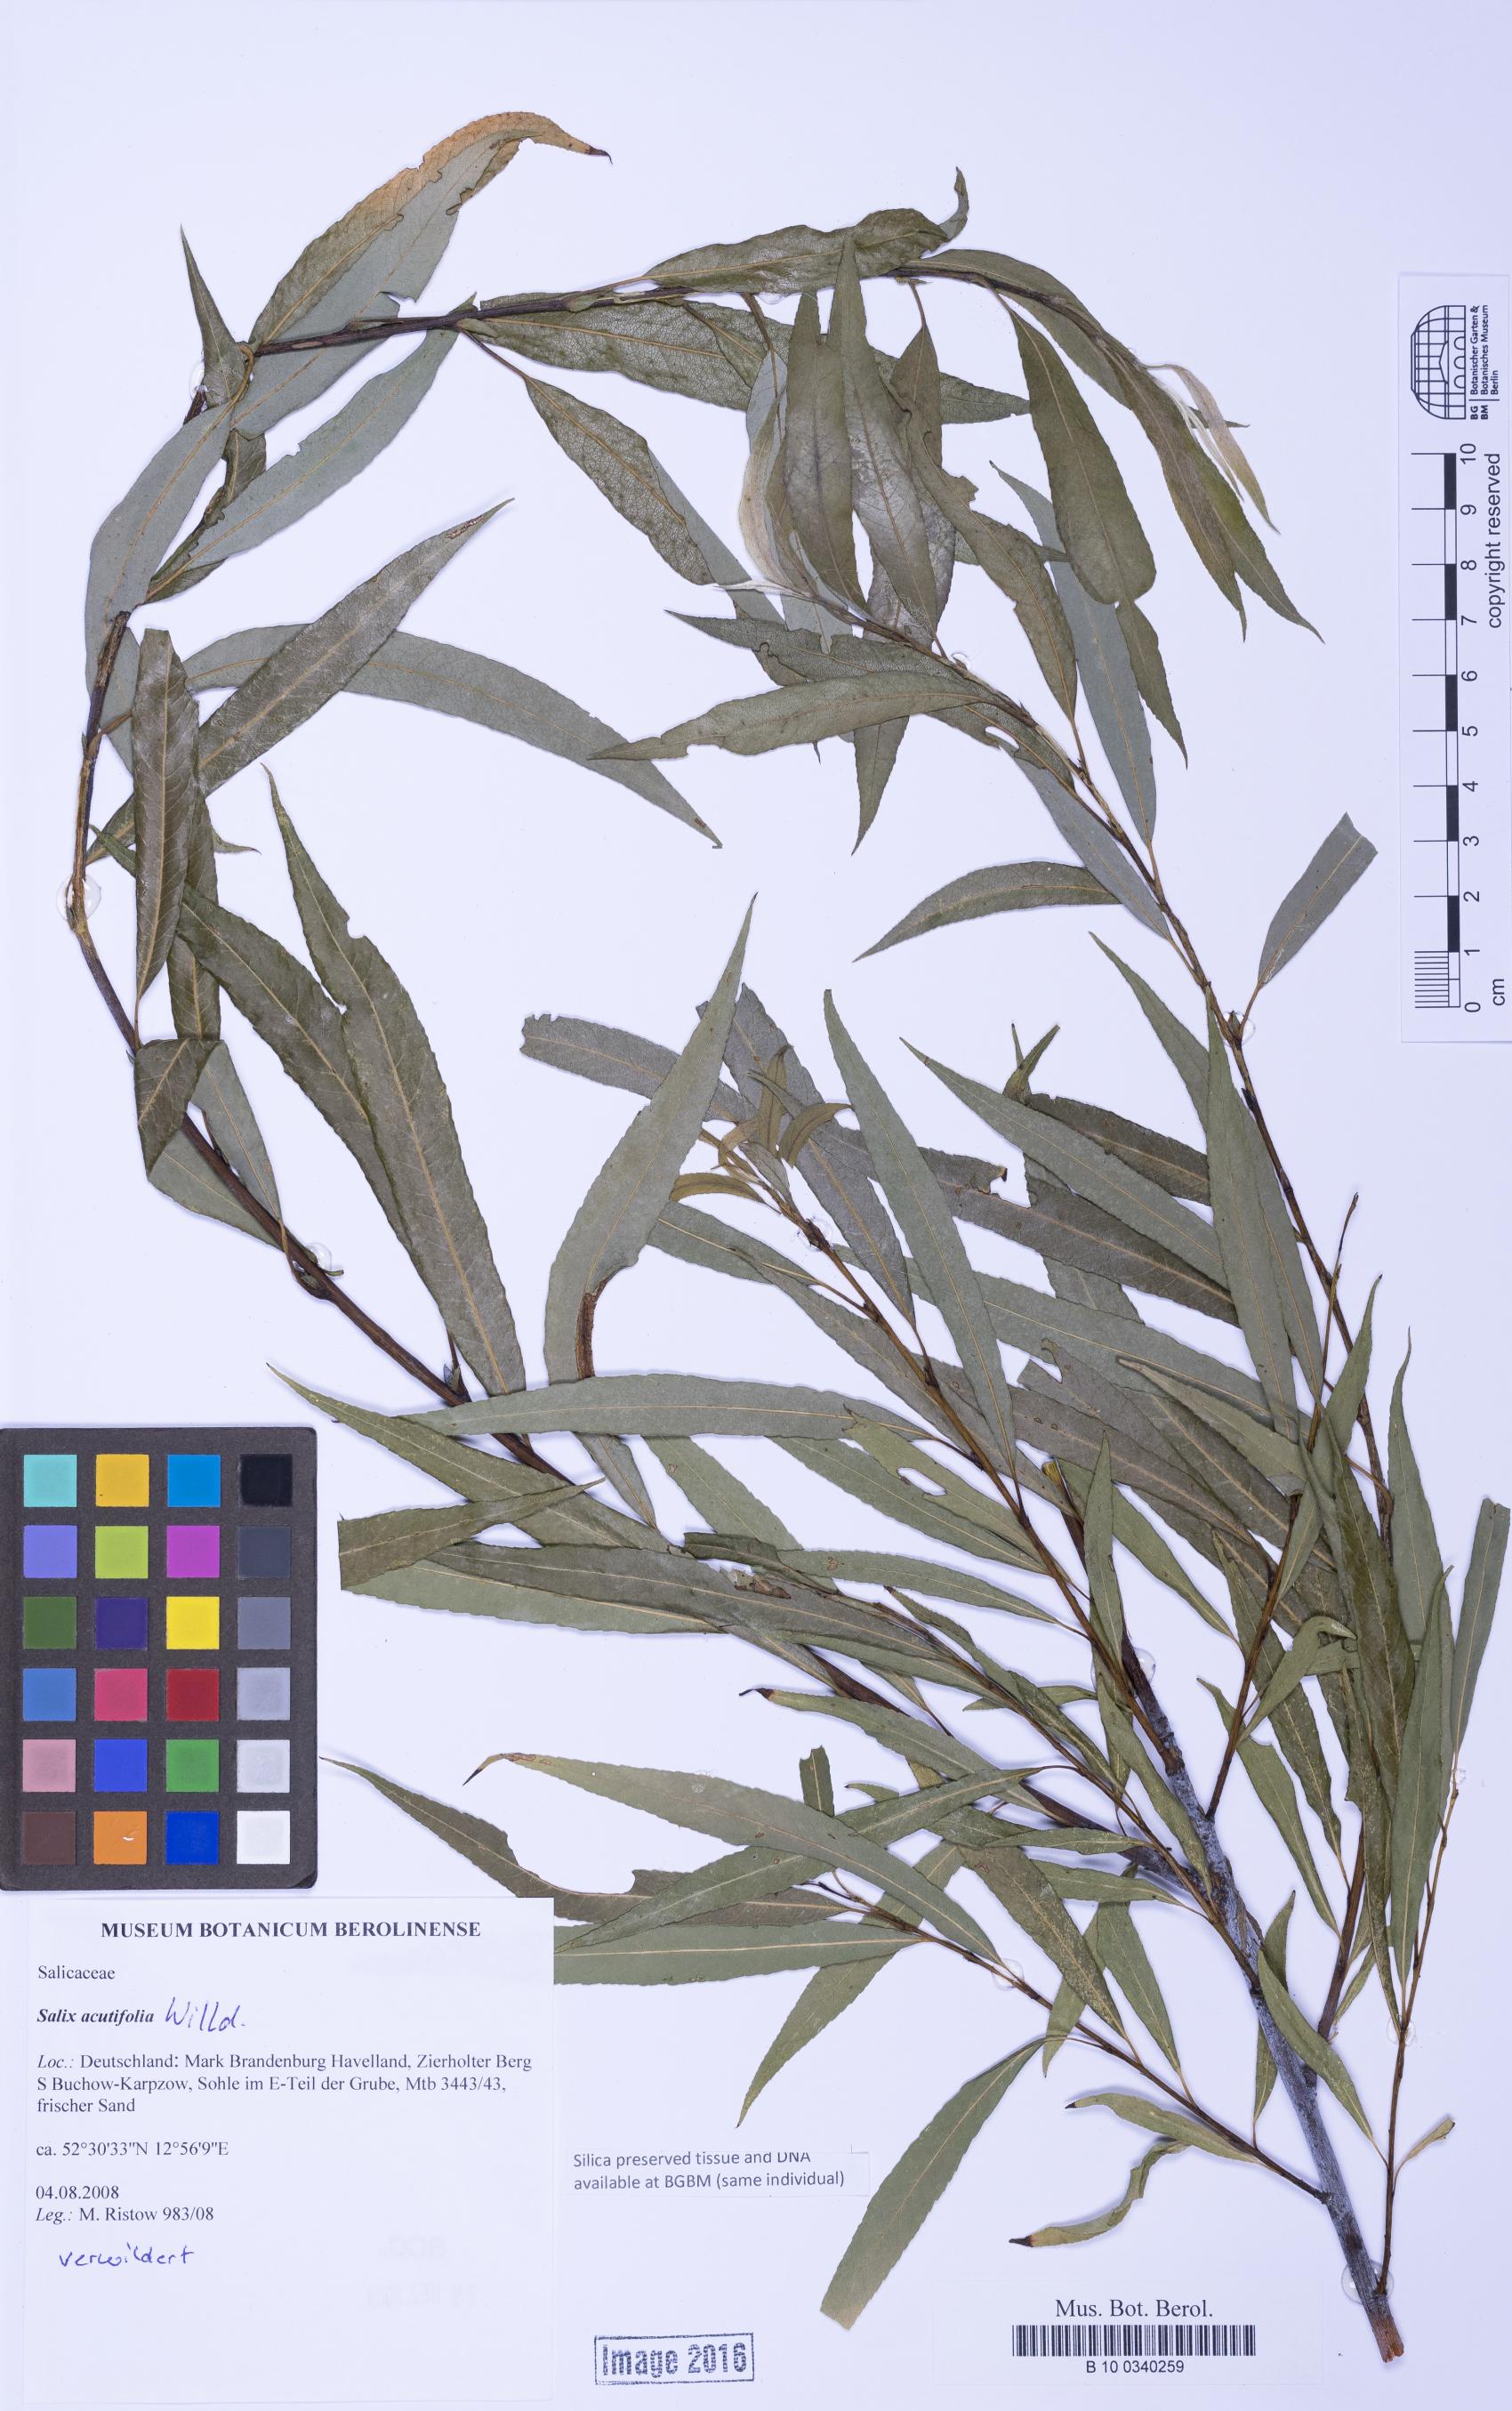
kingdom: Plantae
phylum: Tracheophyta
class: Magnoliopsida
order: Malpighiales
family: Salicaceae
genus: Salix
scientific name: Salix acutifolia
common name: Siberian violet-willow
